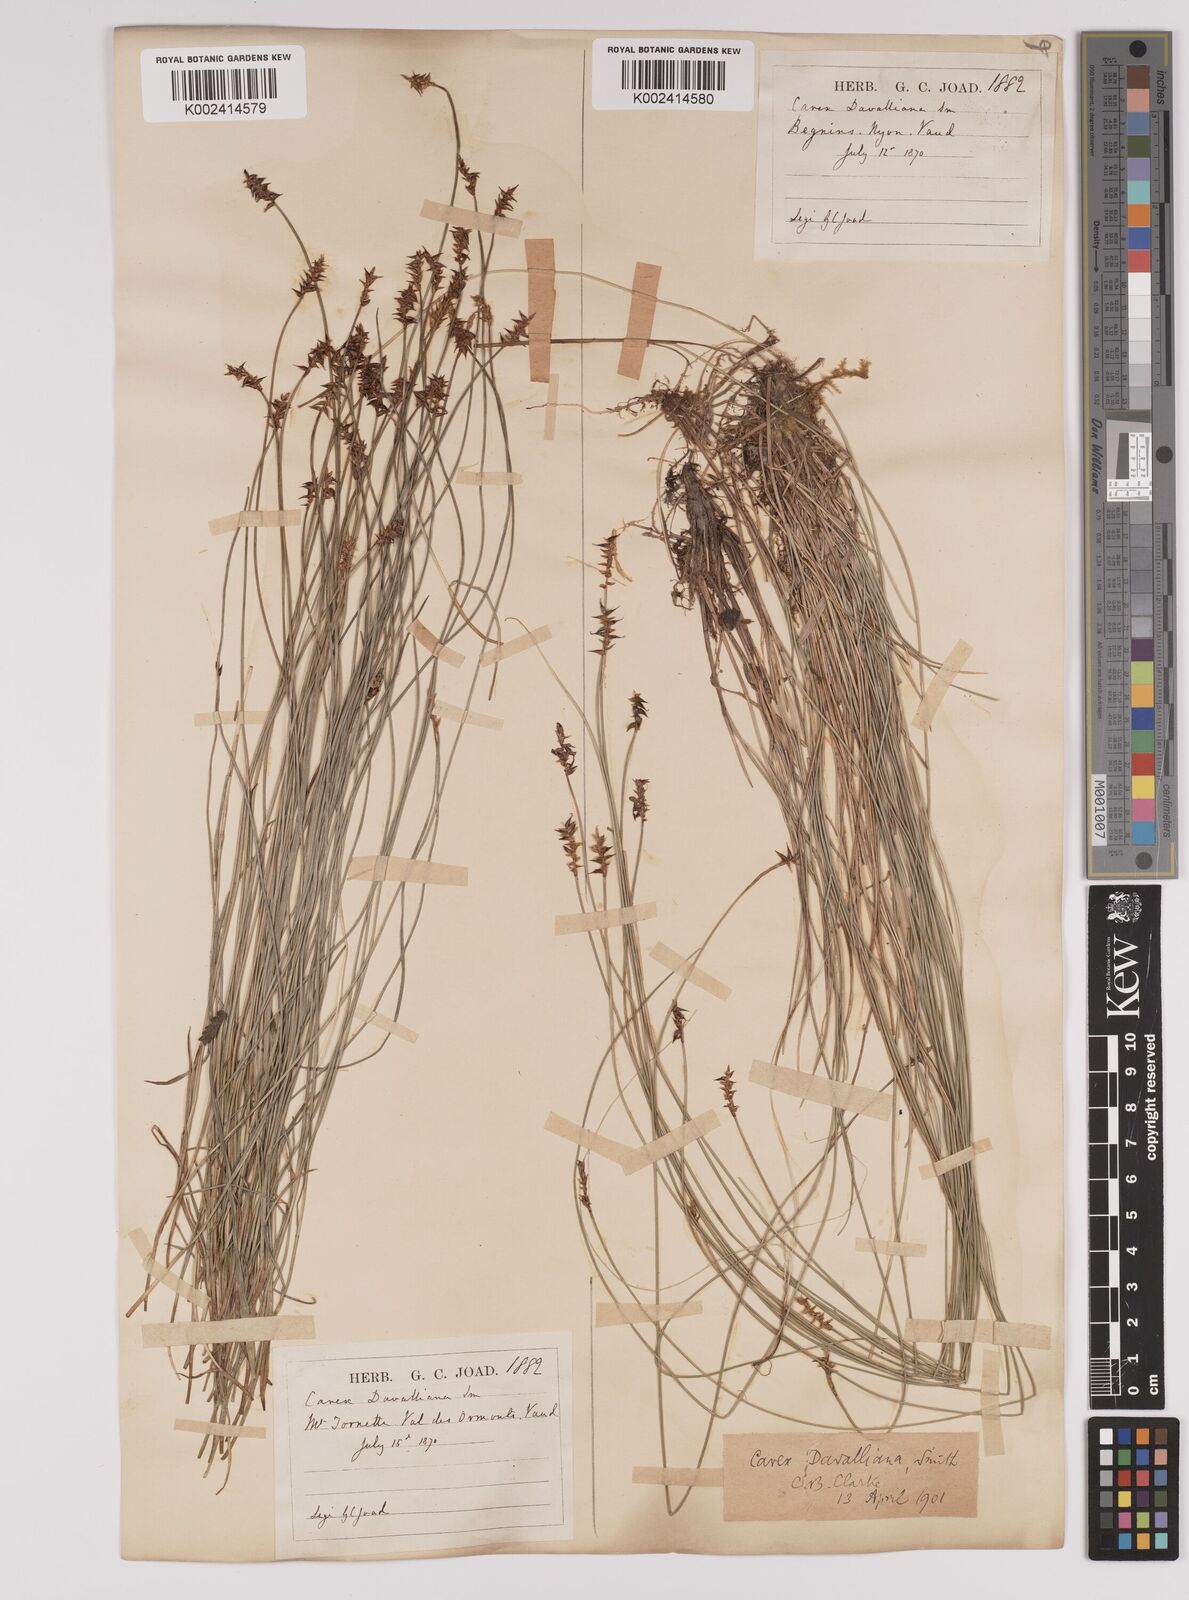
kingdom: Plantae
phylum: Tracheophyta
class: Liliopsida
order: Poales
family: Cyperaceae
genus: Carex
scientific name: Carex davalliana
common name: Davall's sedge
